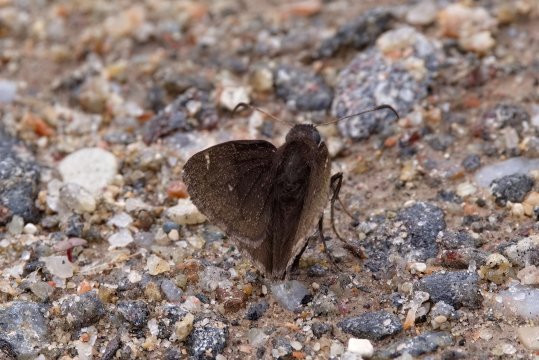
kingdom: Animalia
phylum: Arthropoda
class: Insecta
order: Lepidoptera
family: Hesperiidae
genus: Autochton
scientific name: Autochton
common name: Northern Cloudywing
